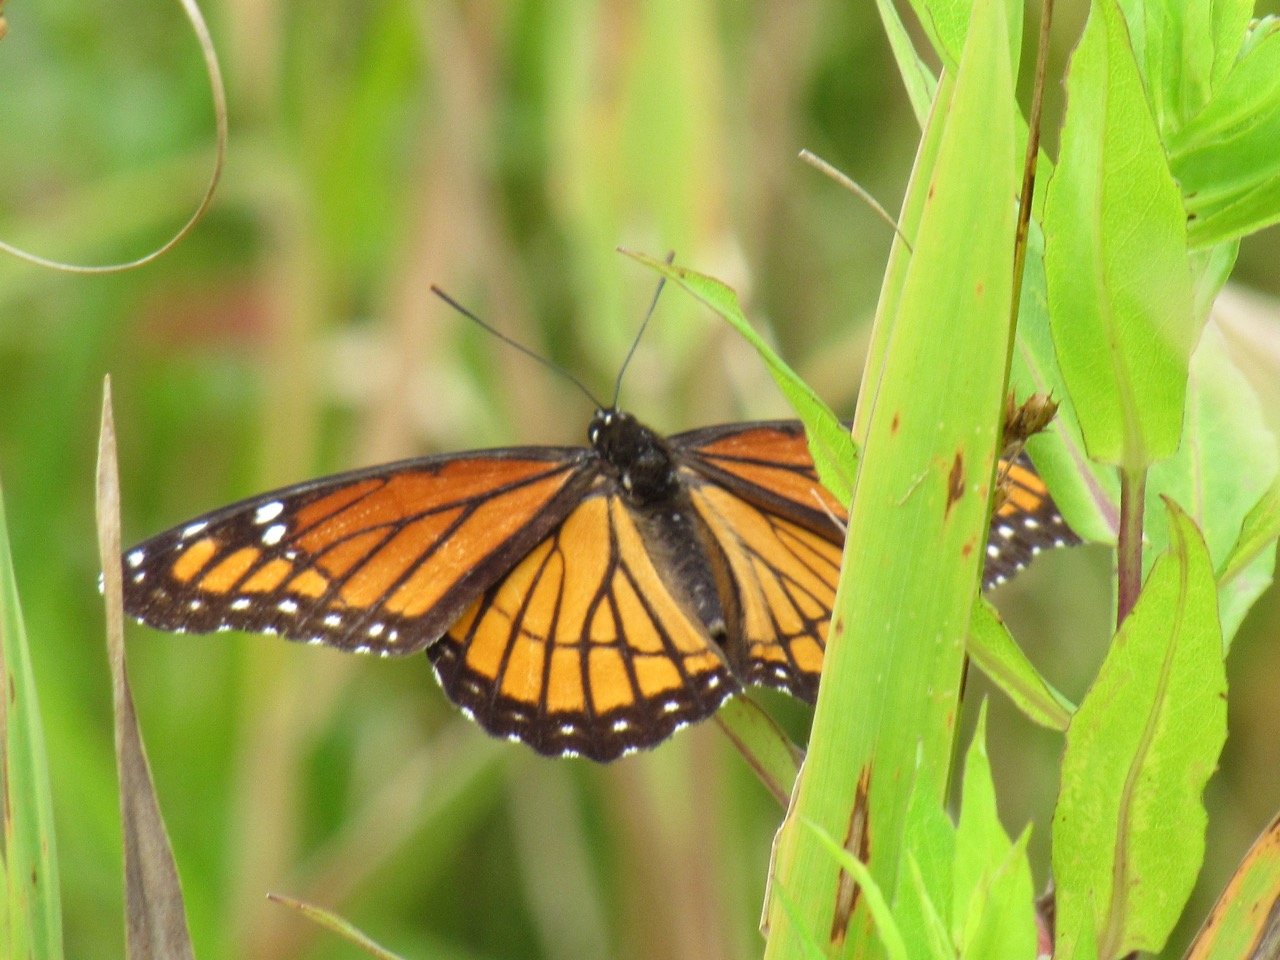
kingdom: Animalia
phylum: Arthropoda
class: Insecta
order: Lepidoptera
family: Nymphalidae
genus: Limenitis
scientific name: Limenitis archippus
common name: Viceroy
